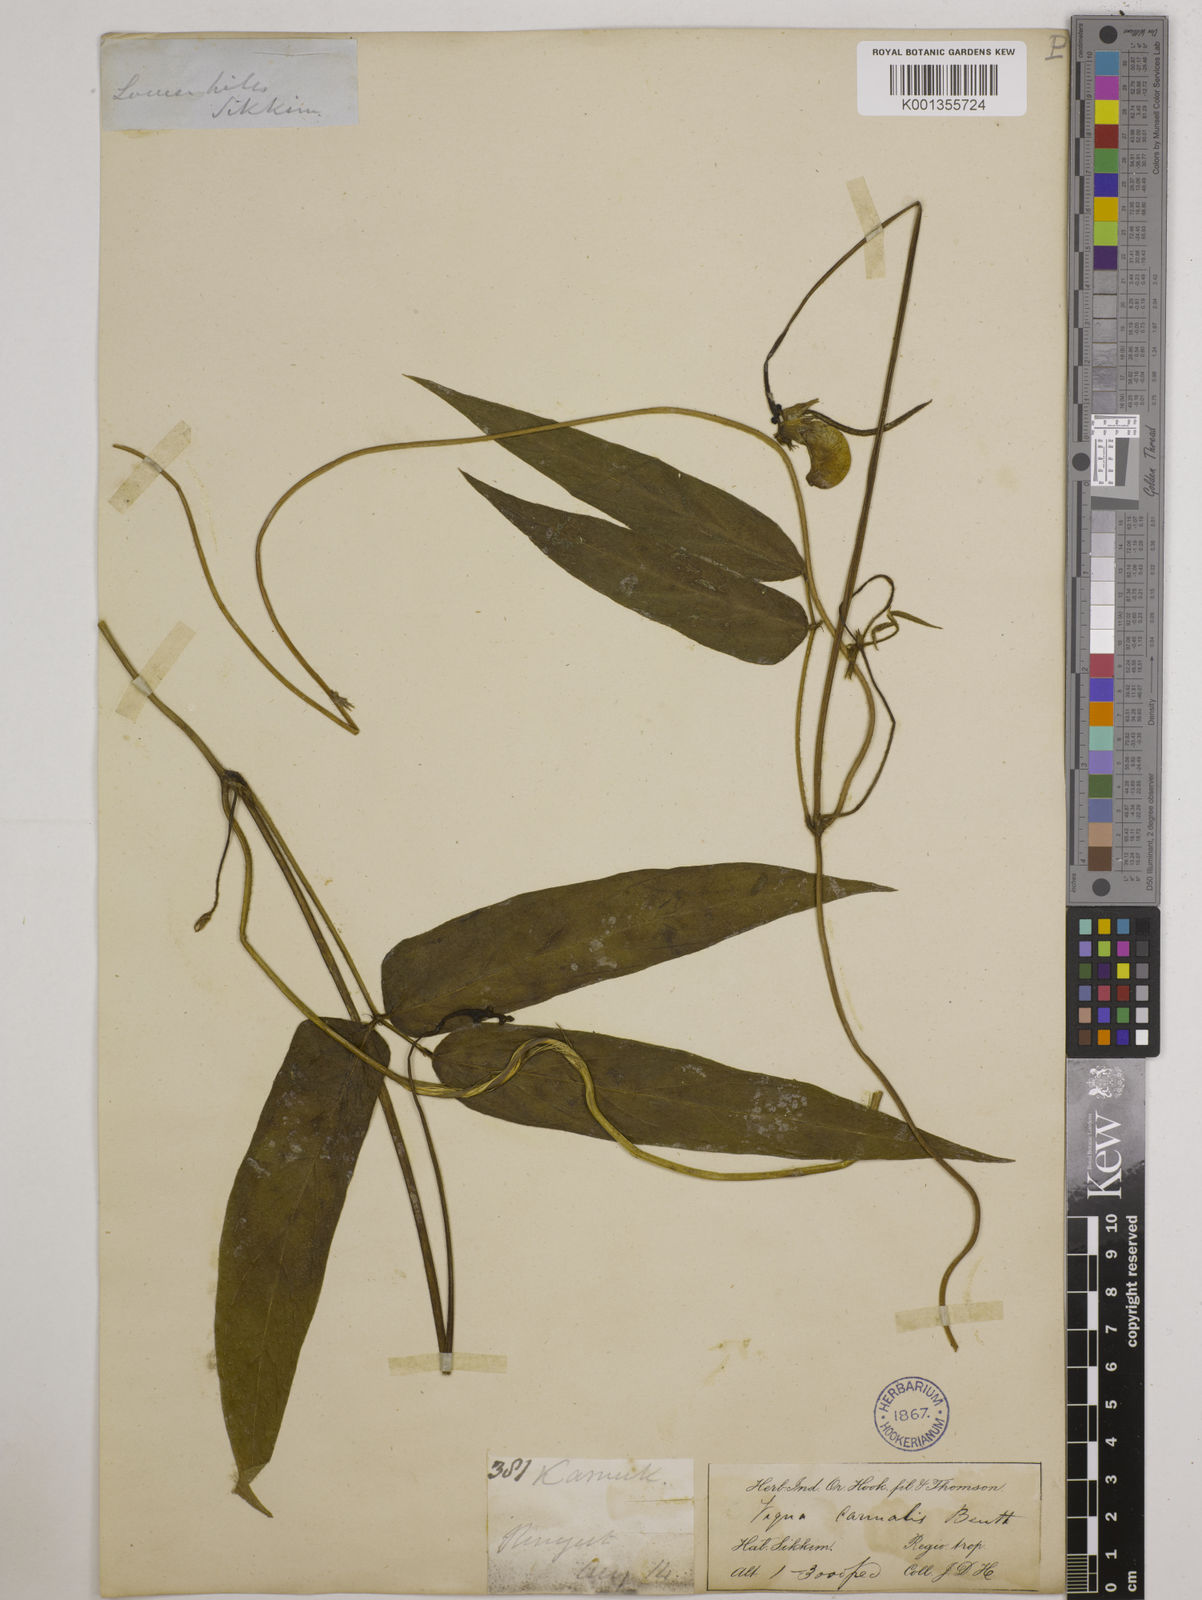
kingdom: Plantae
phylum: Tracheophyta
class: Magnoliopsida
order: Fabales
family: Fabaceae
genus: Vigna
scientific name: Vigna vexillata
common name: Zombi pea
